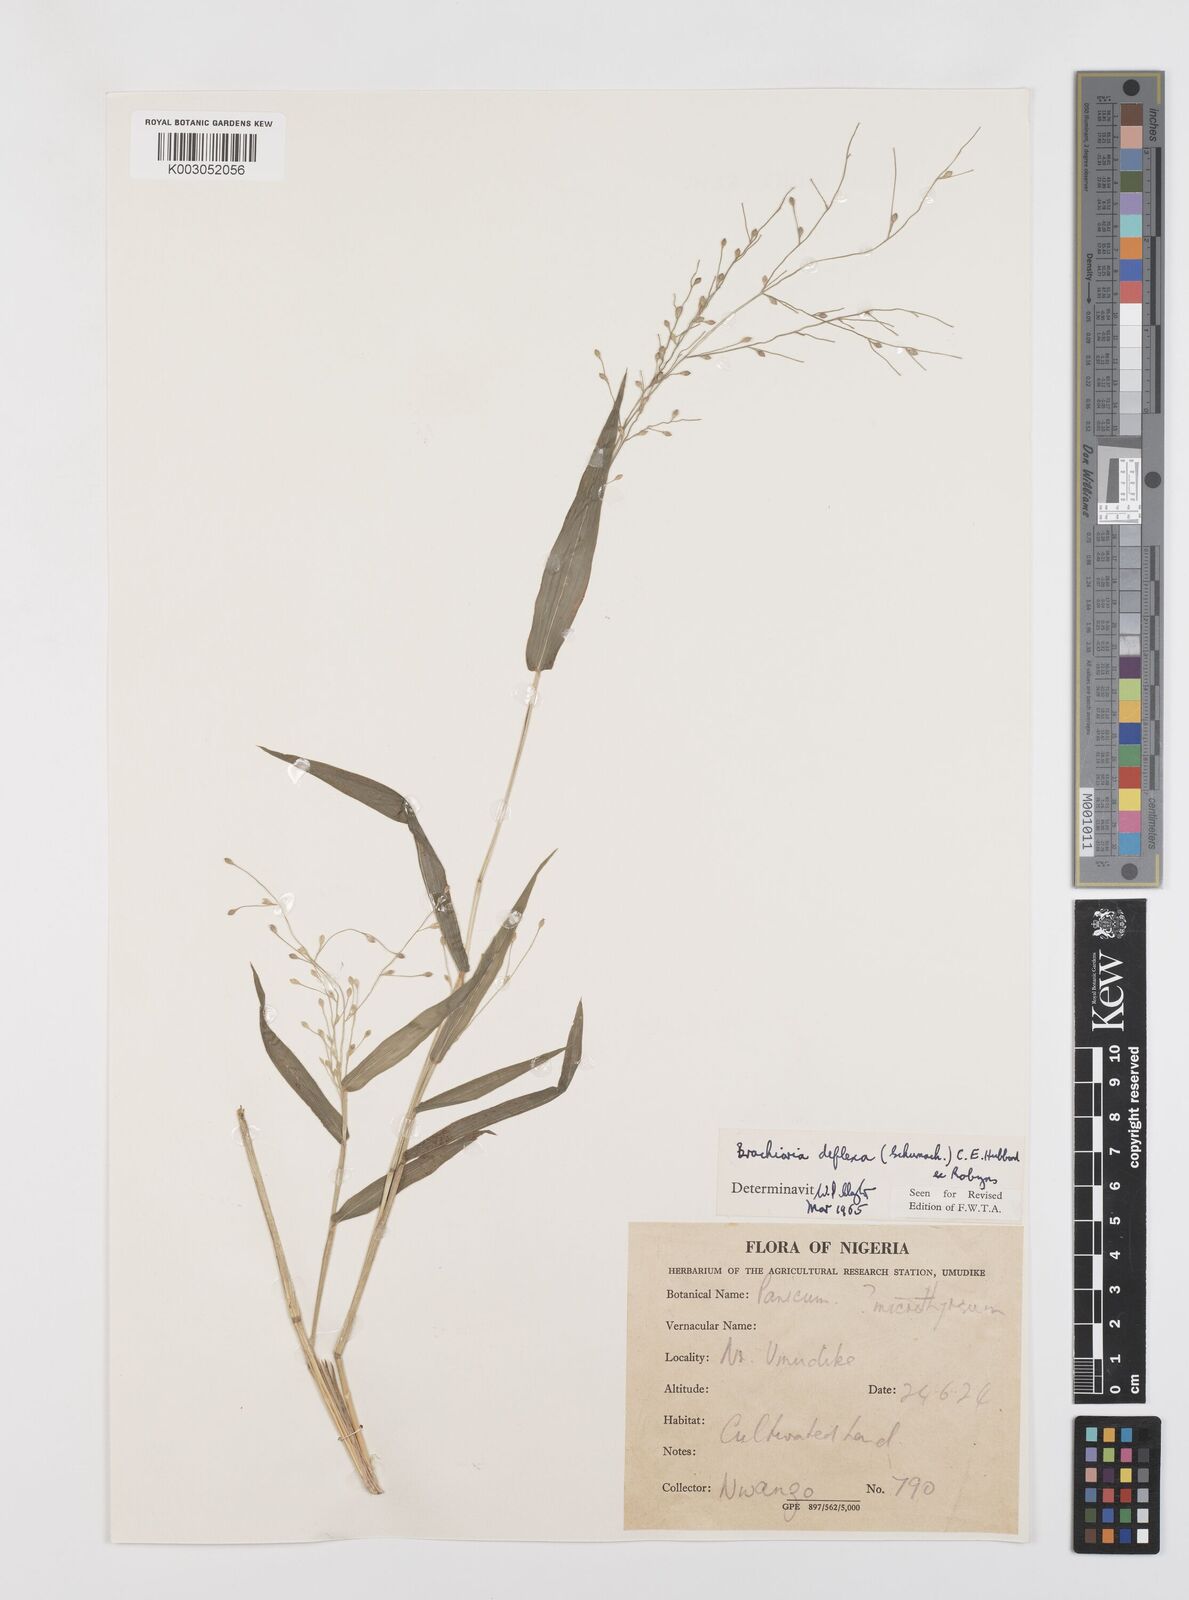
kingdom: Plantae
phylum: Tracheophyta
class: Liliopsida
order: Poales
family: Poaceae
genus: Urochloa
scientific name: Urochloa deflexa
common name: Guinea millet
